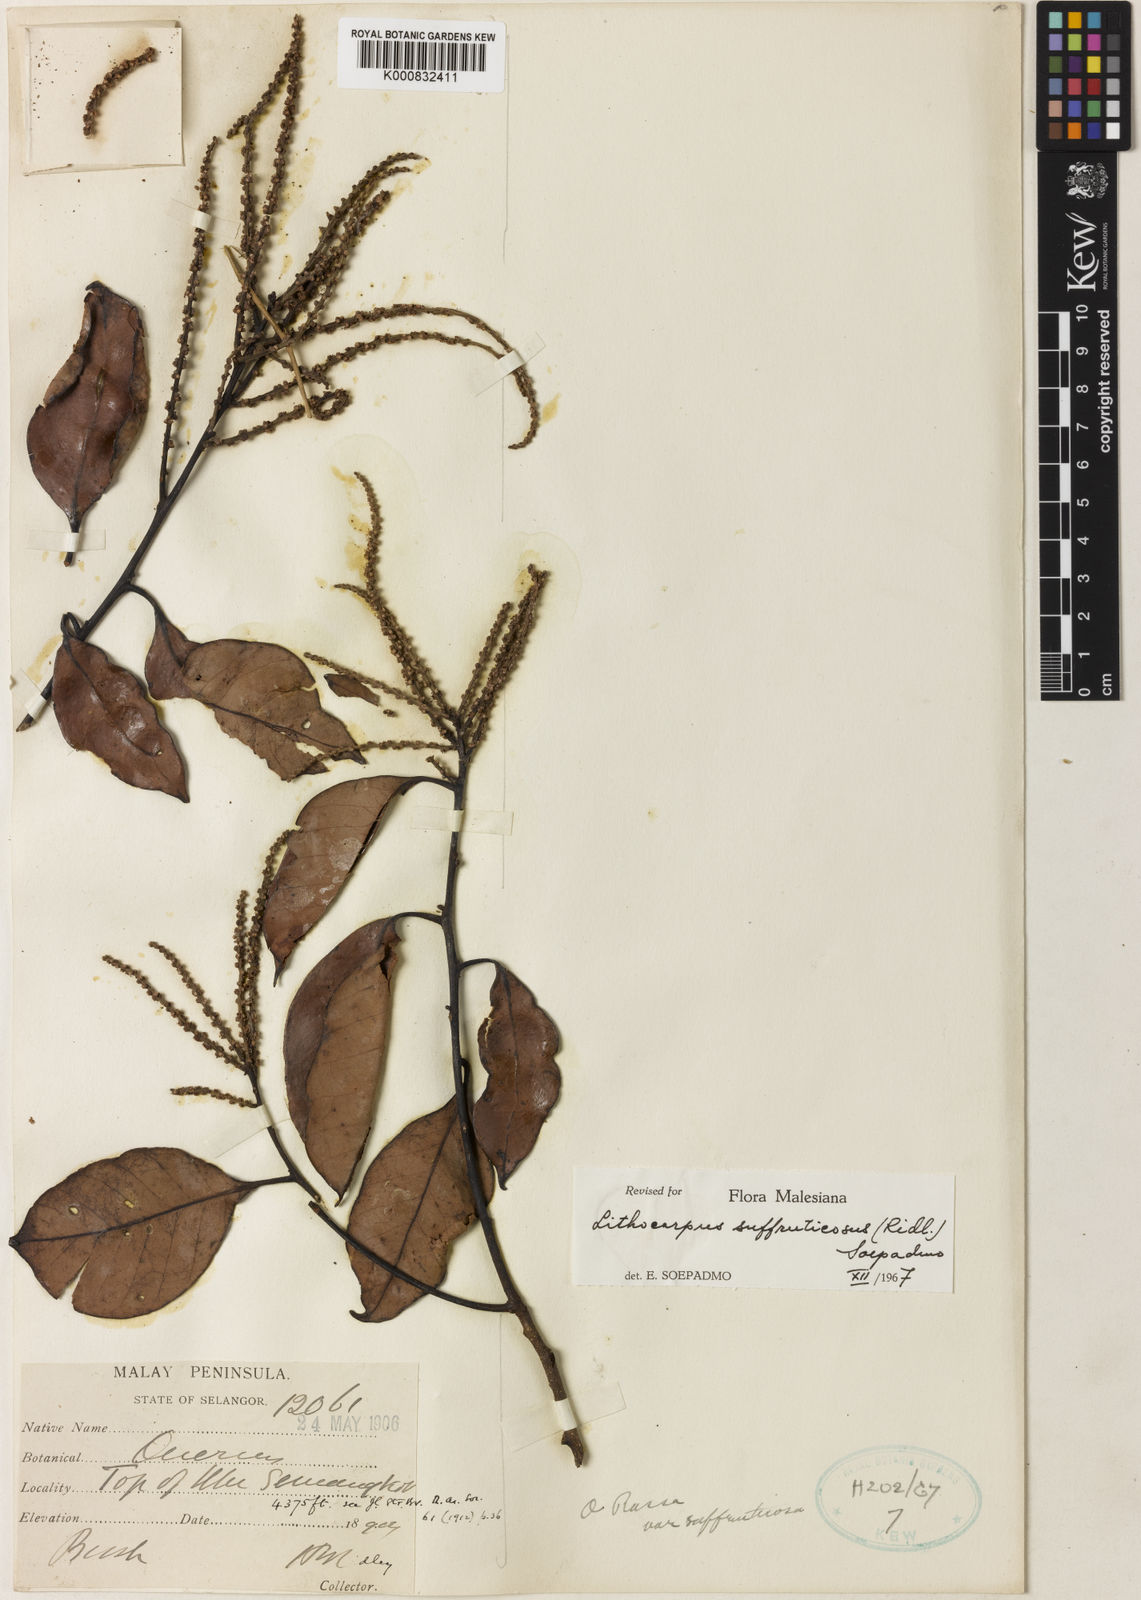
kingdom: Plantae
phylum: Tracheophyta
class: Magnoliopsida
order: Fagales
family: Fagaceae
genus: Lithocarpus
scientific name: Lithocarpus suffruticosus
